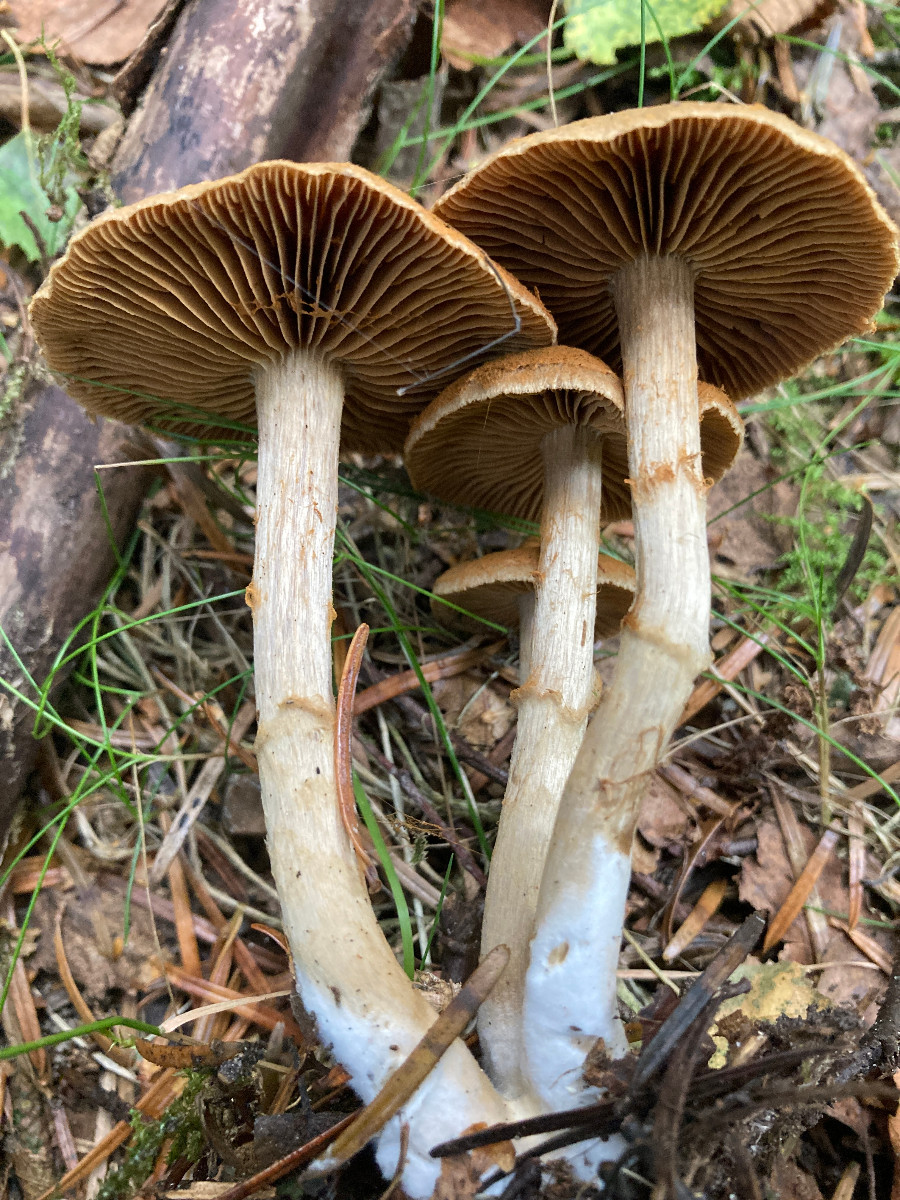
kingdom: Fungi
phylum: Basidiomycota
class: Agaricomycetes
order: Agaricales
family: Cortinariaceae
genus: Cortinarius
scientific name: Cortinarius raphanoides
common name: ræddike-slørhat
